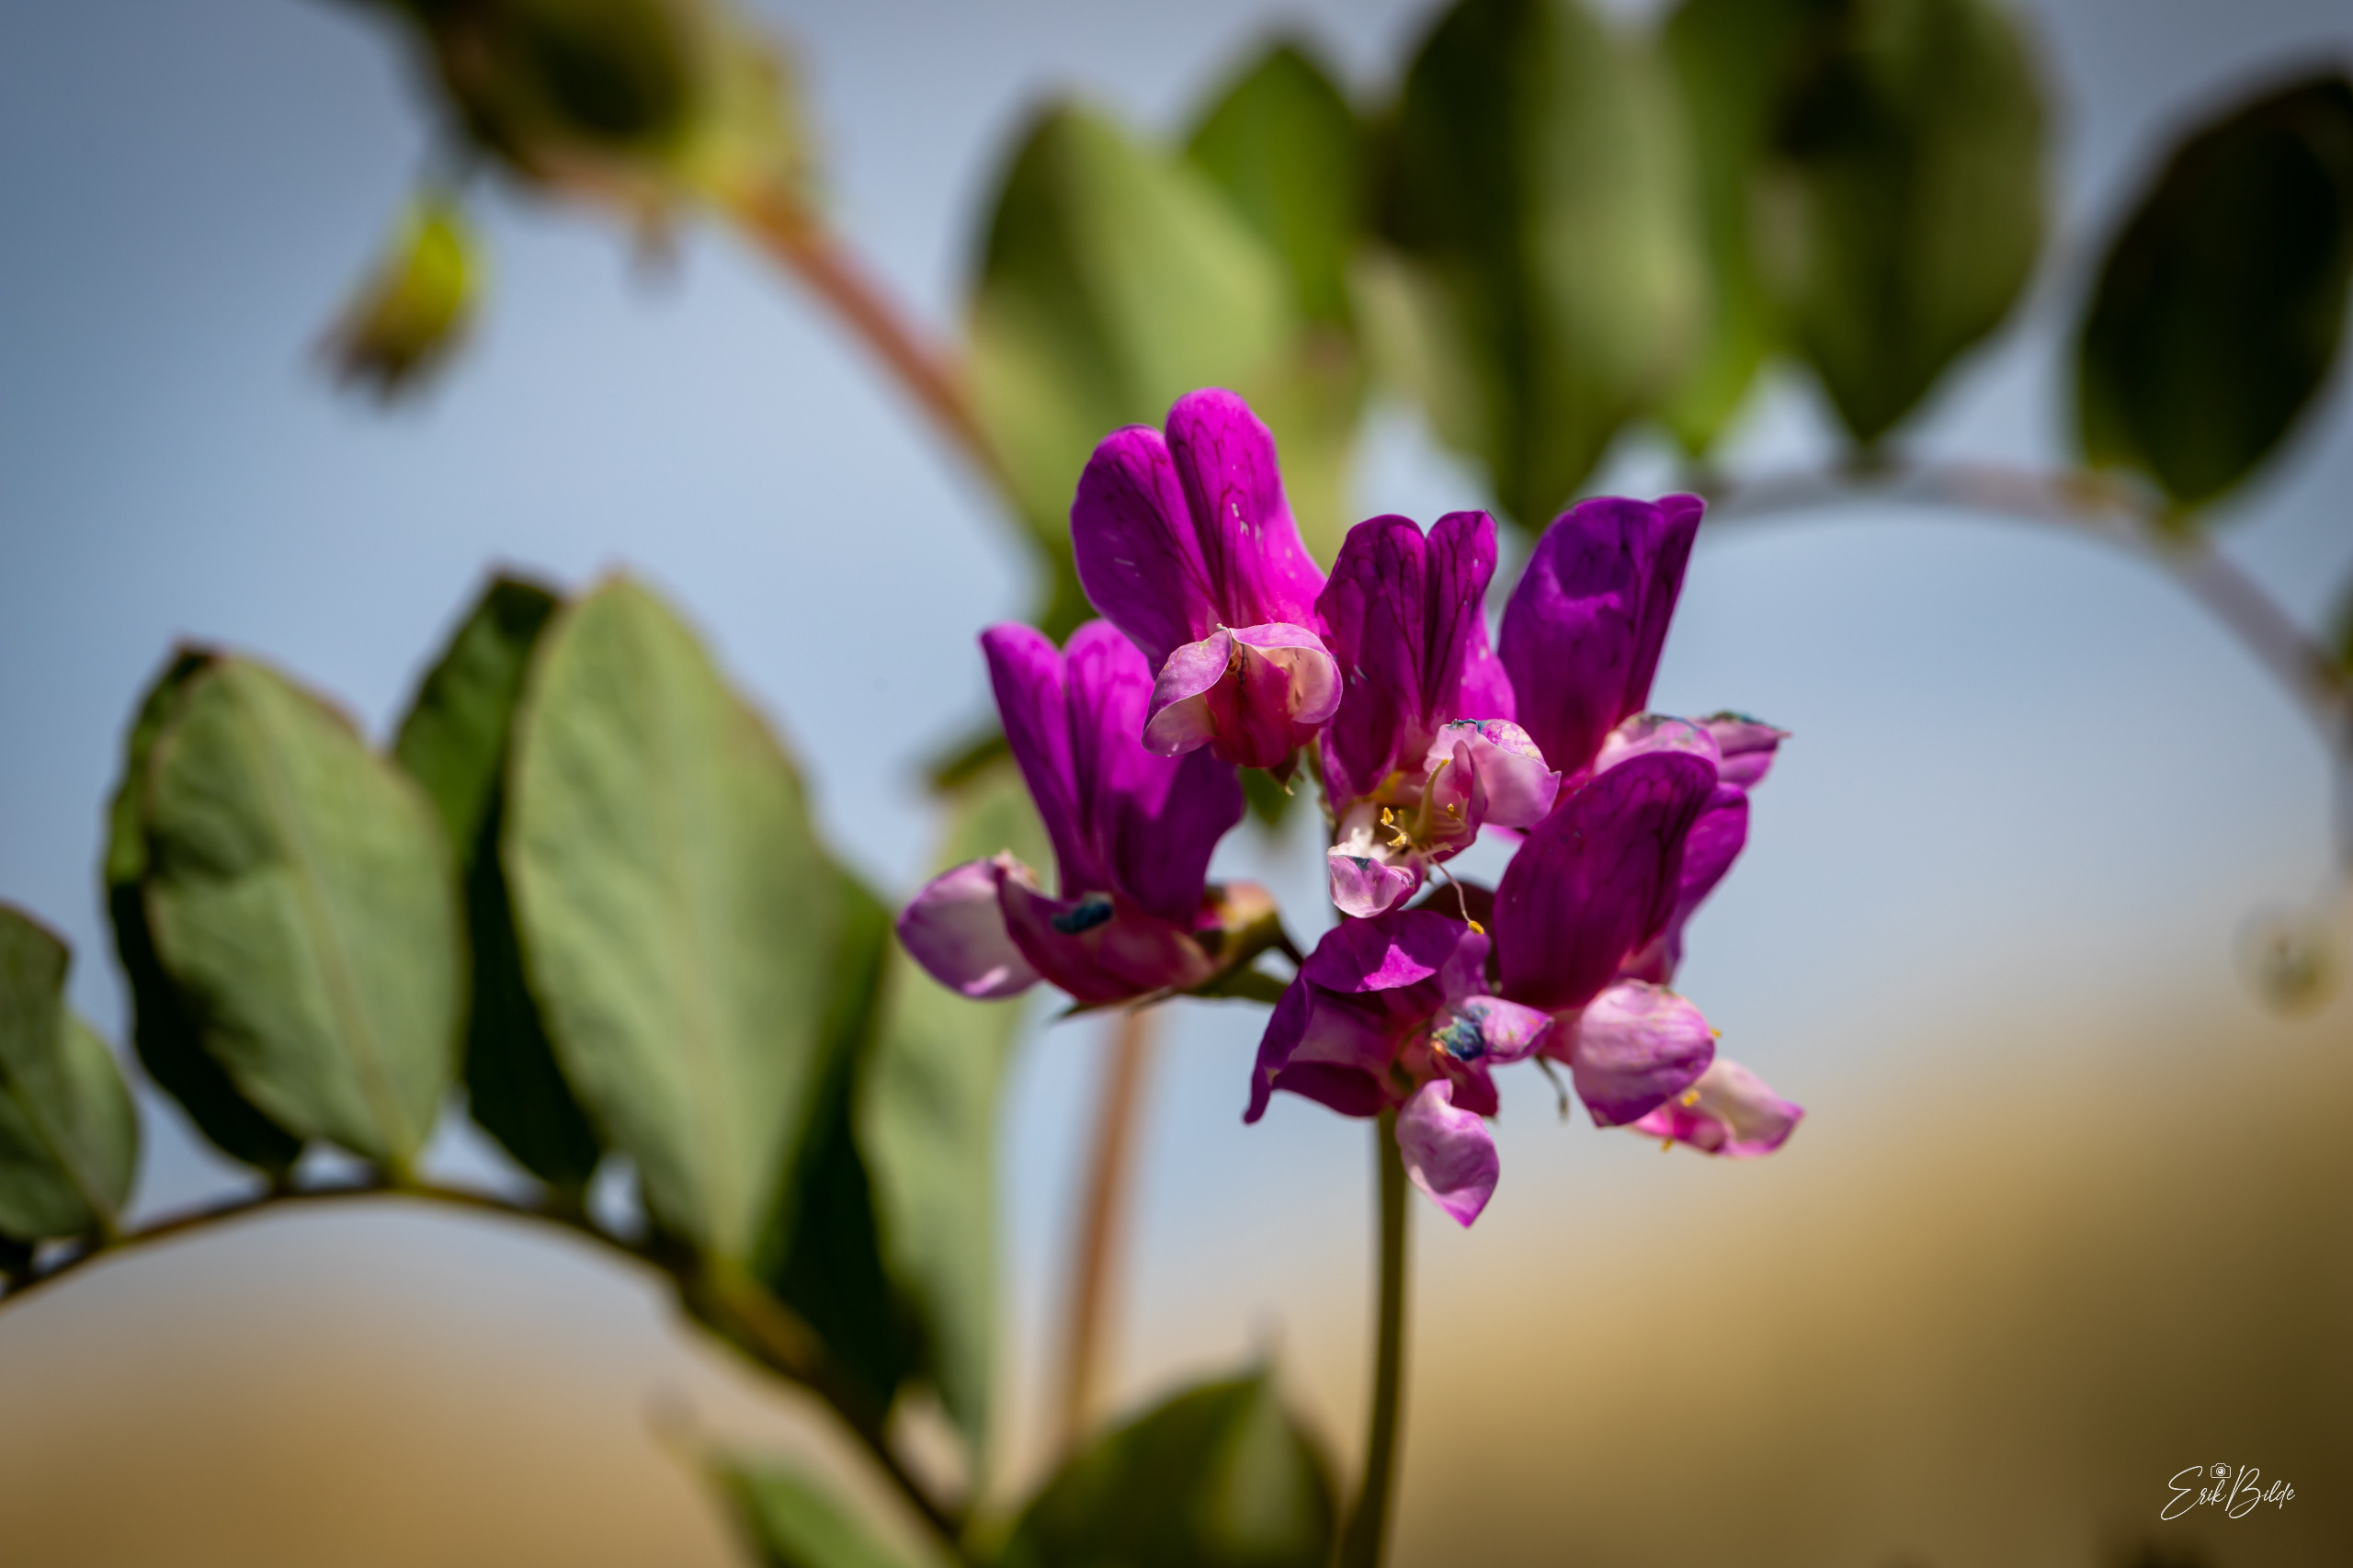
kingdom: Plantae
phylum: Tracheophyta
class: Magnoliopsida
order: Fabales
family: Fabaceae
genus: Lathyrus
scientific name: Lathyrus japonicus
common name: Strand-fladbælg
